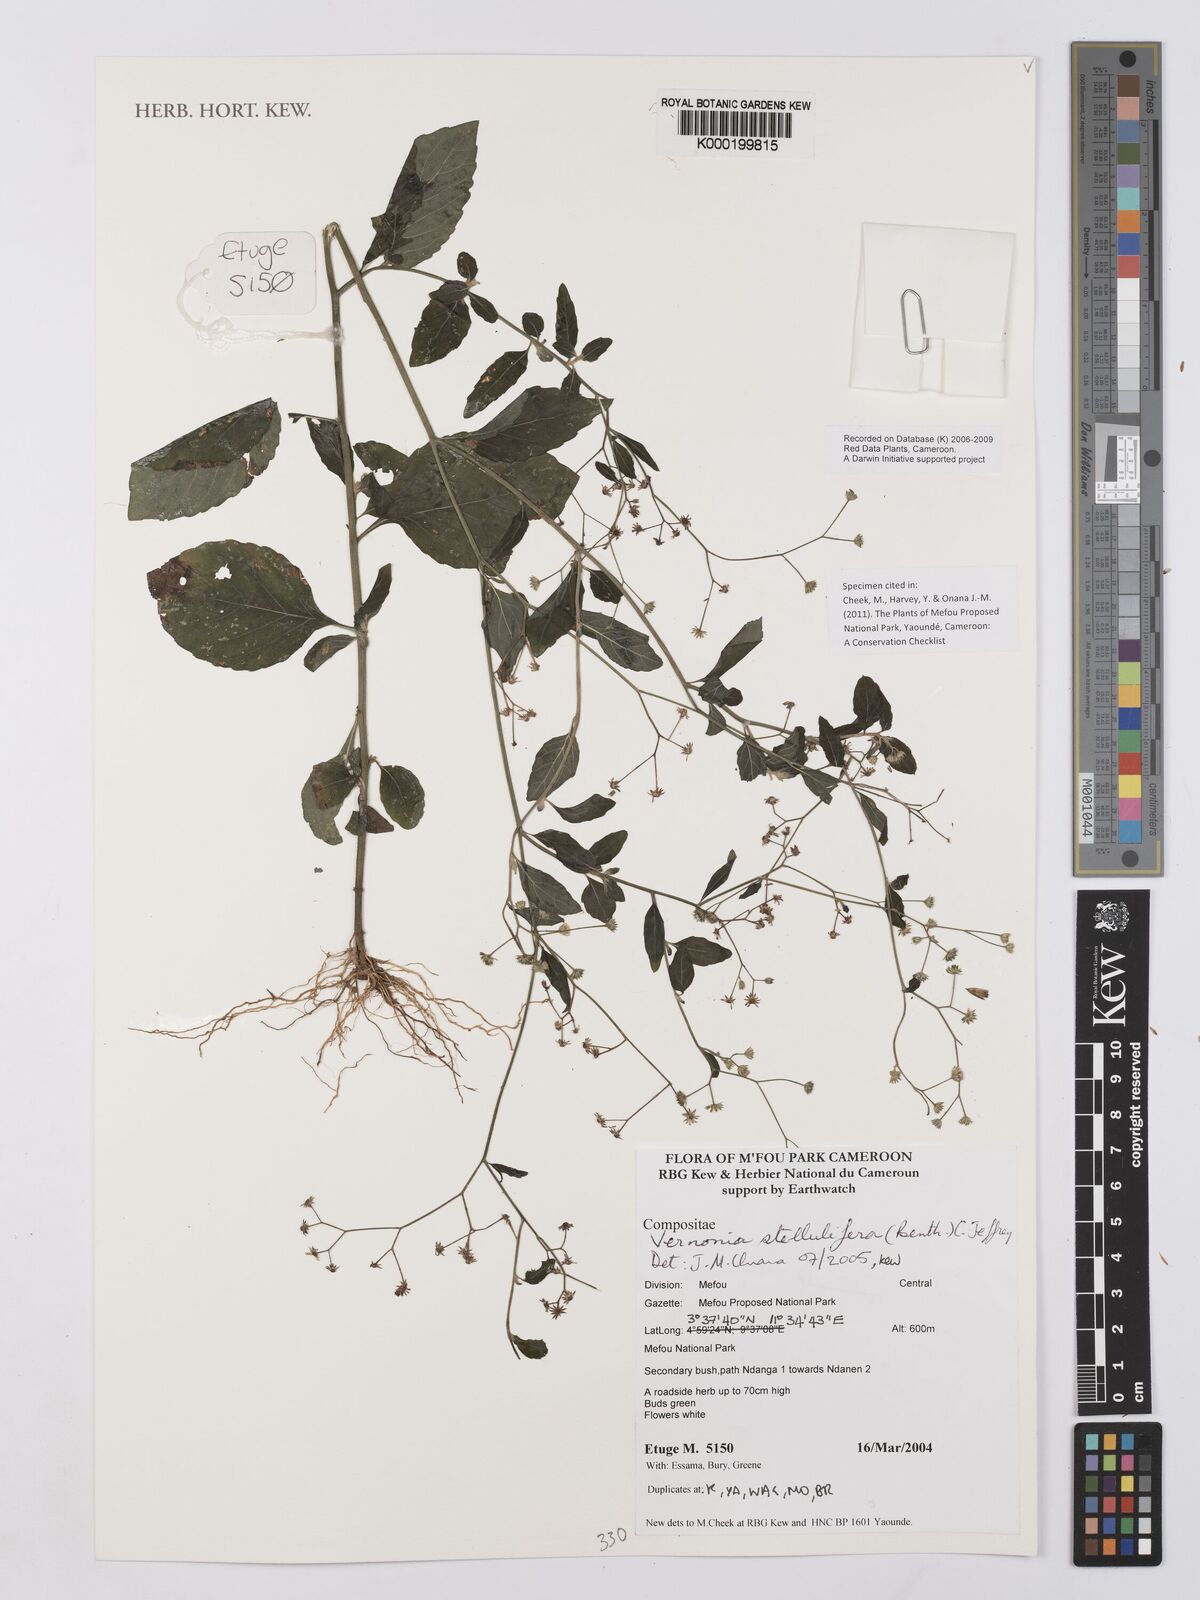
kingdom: Plantae
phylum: Tracheophyta
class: Magnoliopsida
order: Asterales
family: Asteraceae
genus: Cyanthillium
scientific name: Cyanthillium stelluliferum
